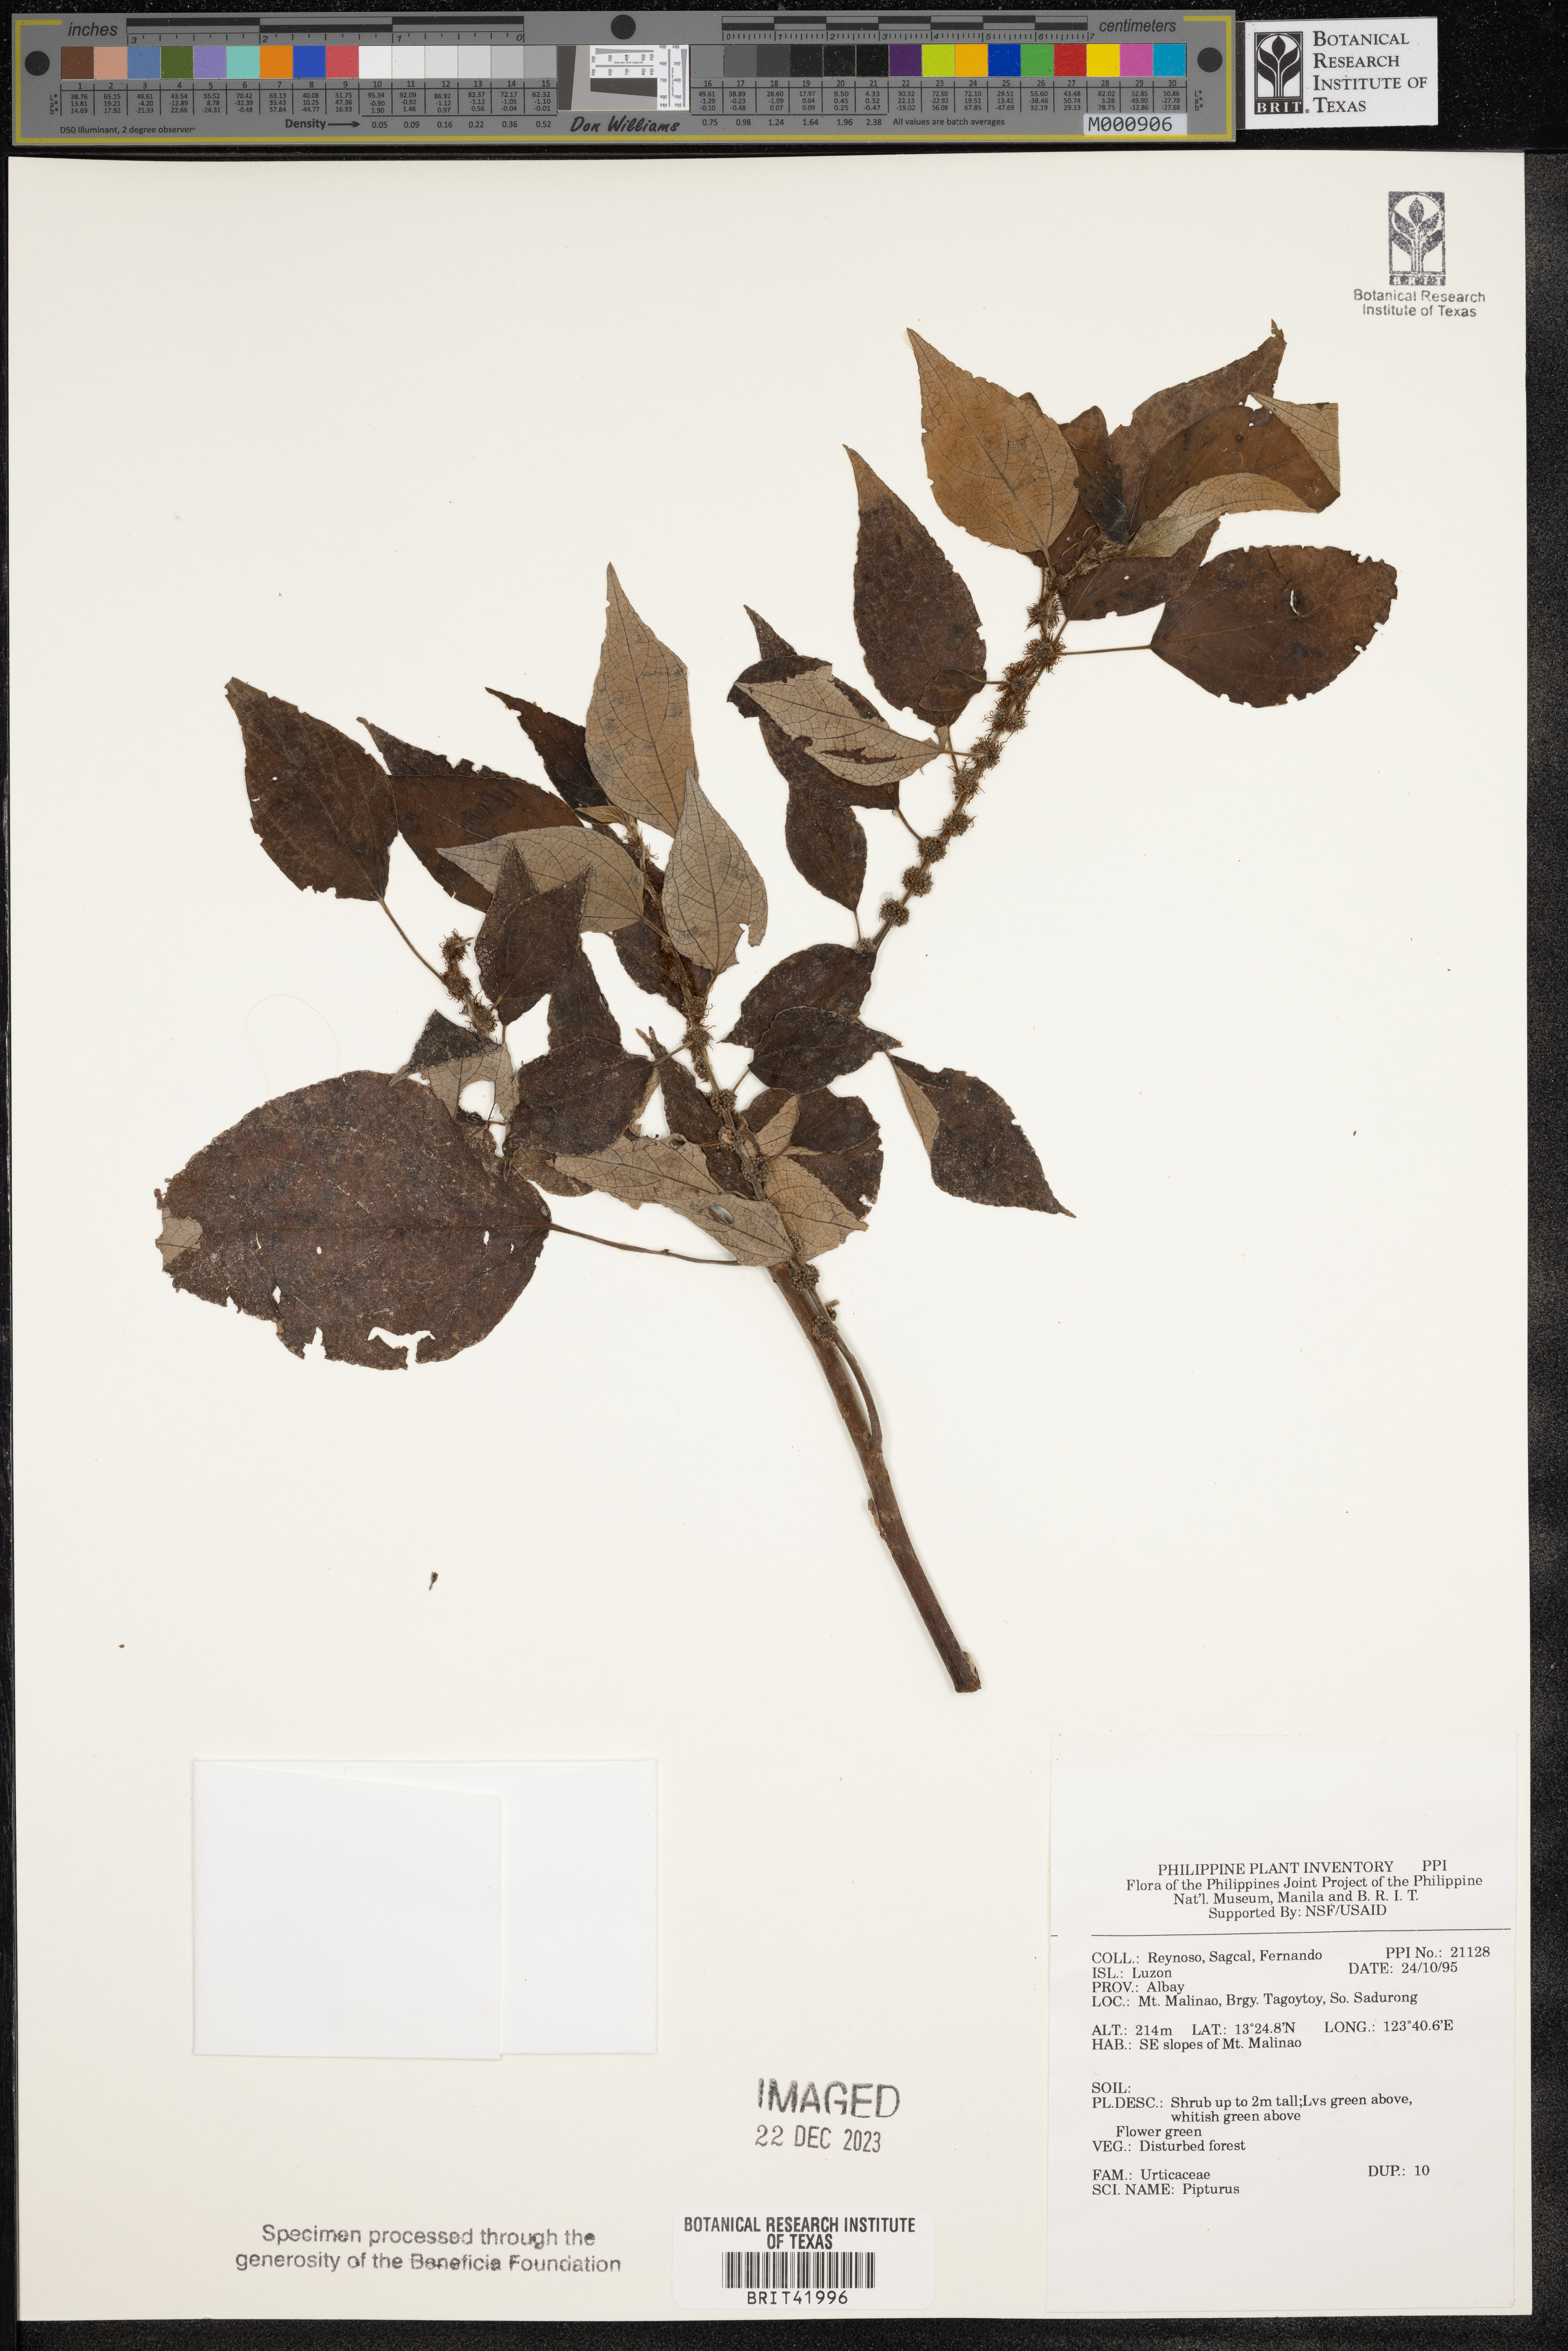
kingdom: Plantae
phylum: Tracheophyta
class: Magnoliopsida
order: Rosales
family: Urticaceae
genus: Pipturus
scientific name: Pipturus
